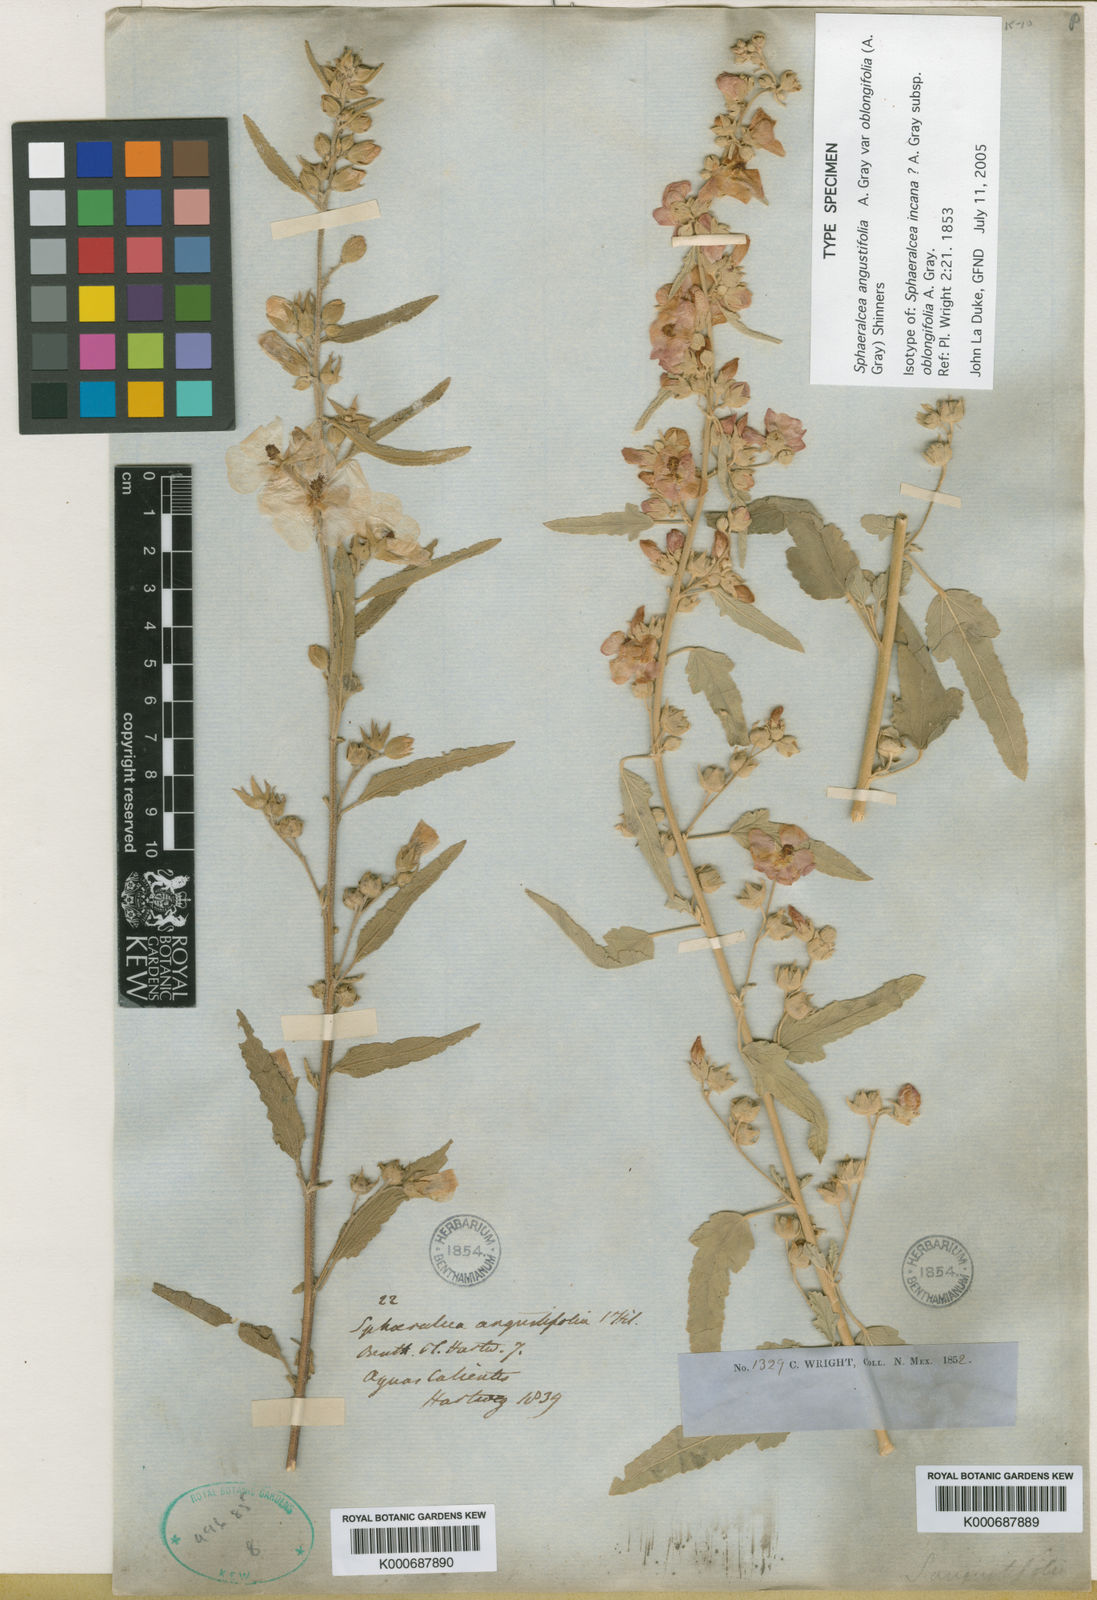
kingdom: Plantae
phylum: Tracheophyta
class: Magnoliopsida
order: Malvales
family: Malvaceae
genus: Sphaeralcea
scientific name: Sphaeralcea angustifolia
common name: Copper globe-mallow
